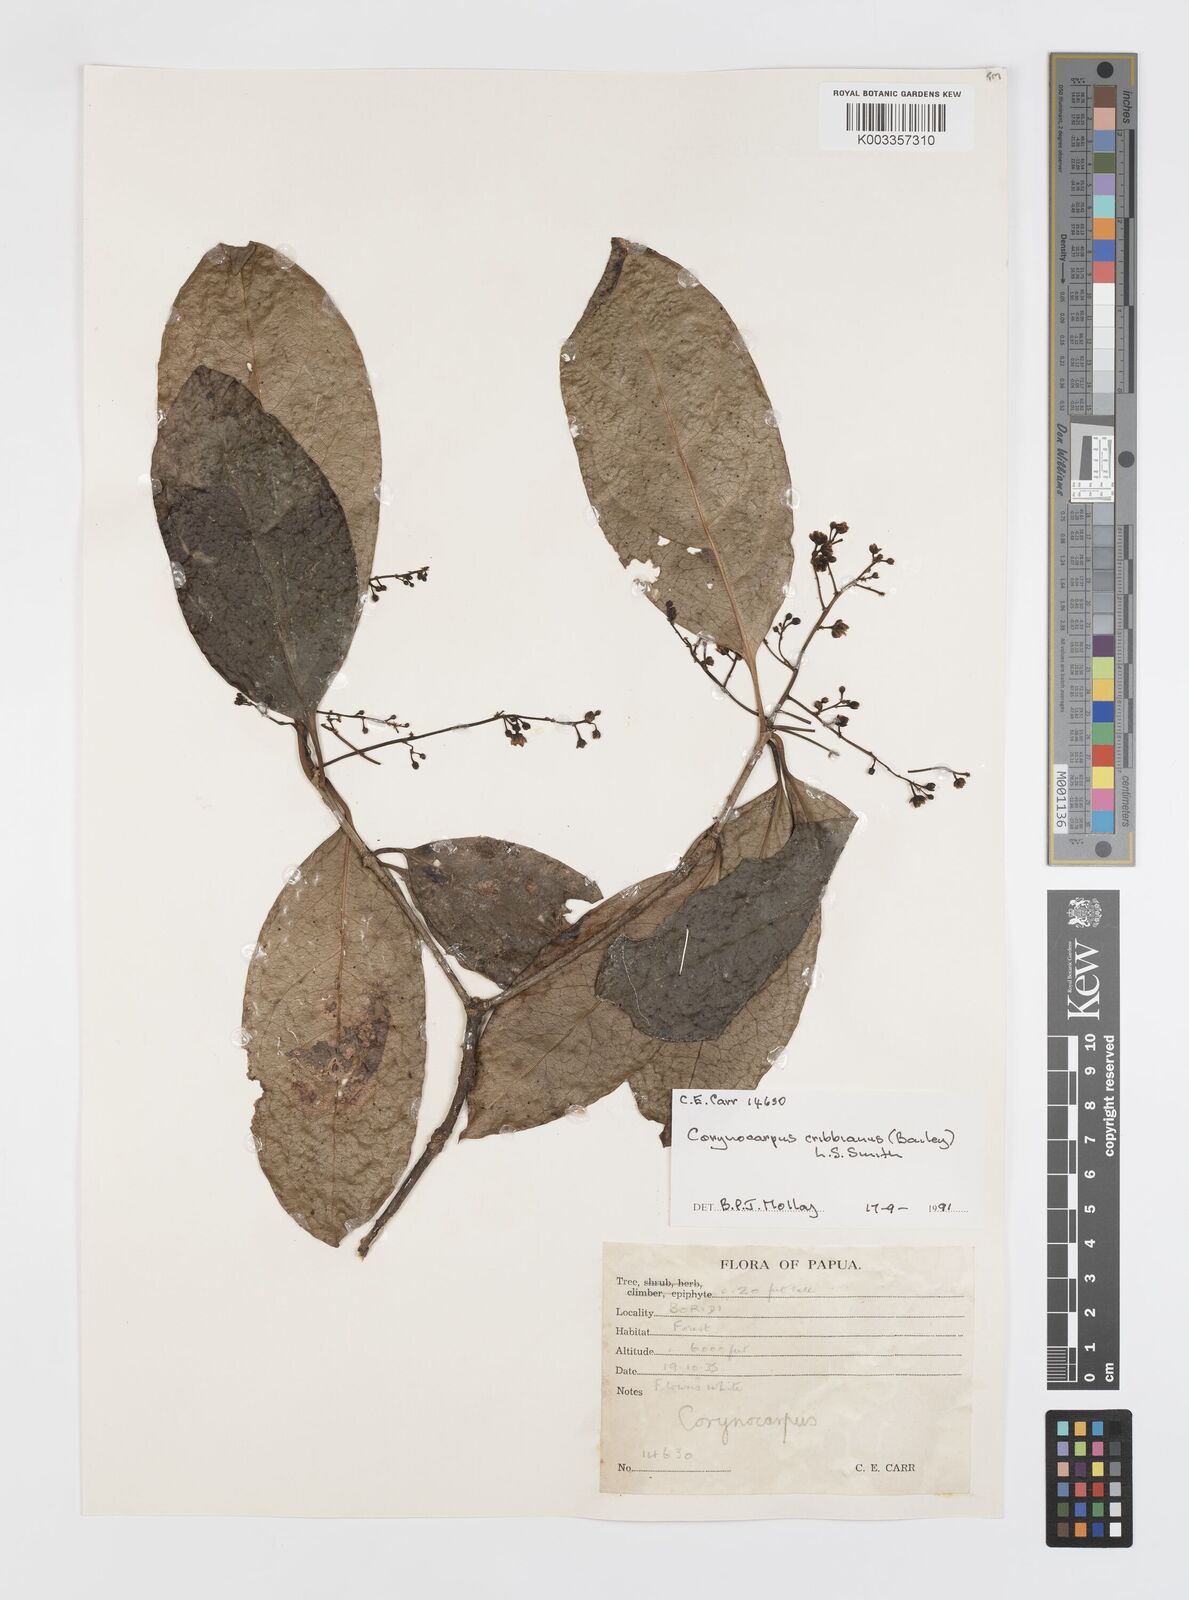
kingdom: Plantae
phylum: Tracheophyta
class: Magnoliopsida
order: Cucurbitales
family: Corynocarpaceae
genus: Corynocarpus
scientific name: Corynocarpus cribbianus
